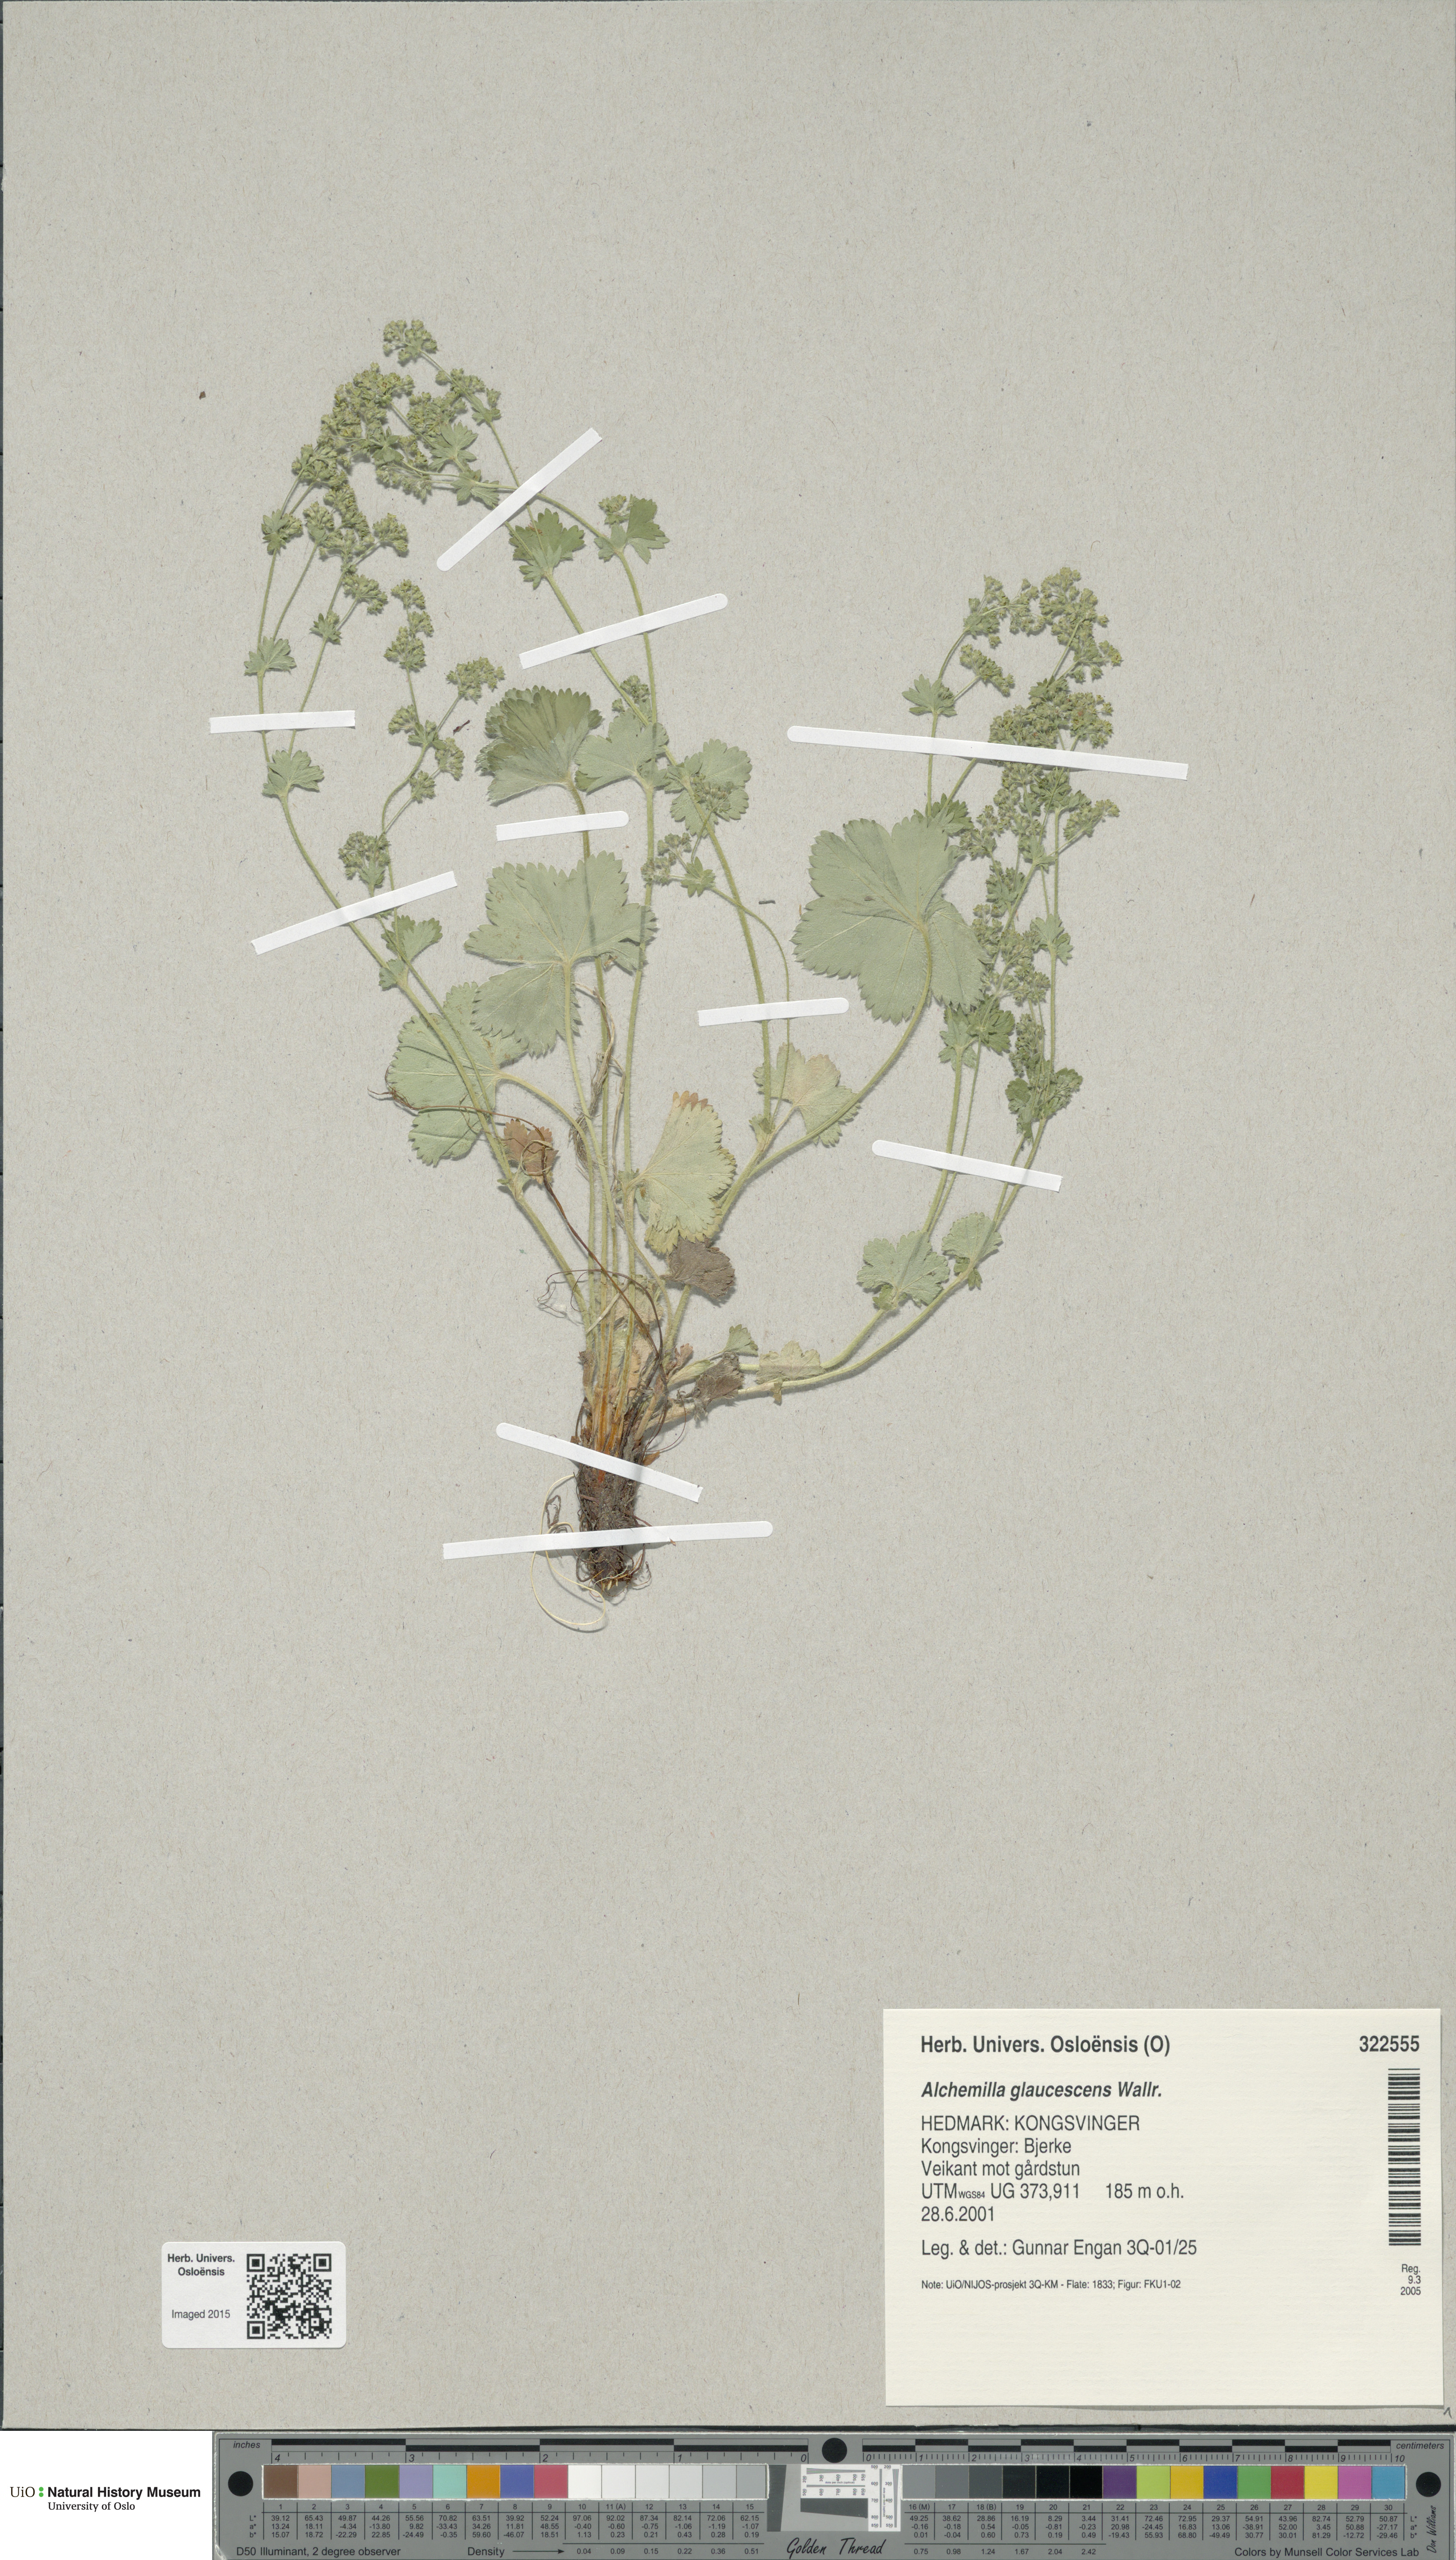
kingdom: Plantae
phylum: Tracheophyta
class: Magnoliopsida
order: Rosales
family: Rosaceae
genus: Alchemilla
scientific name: Alchemilla glaucescens
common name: Silky lady's mantle
